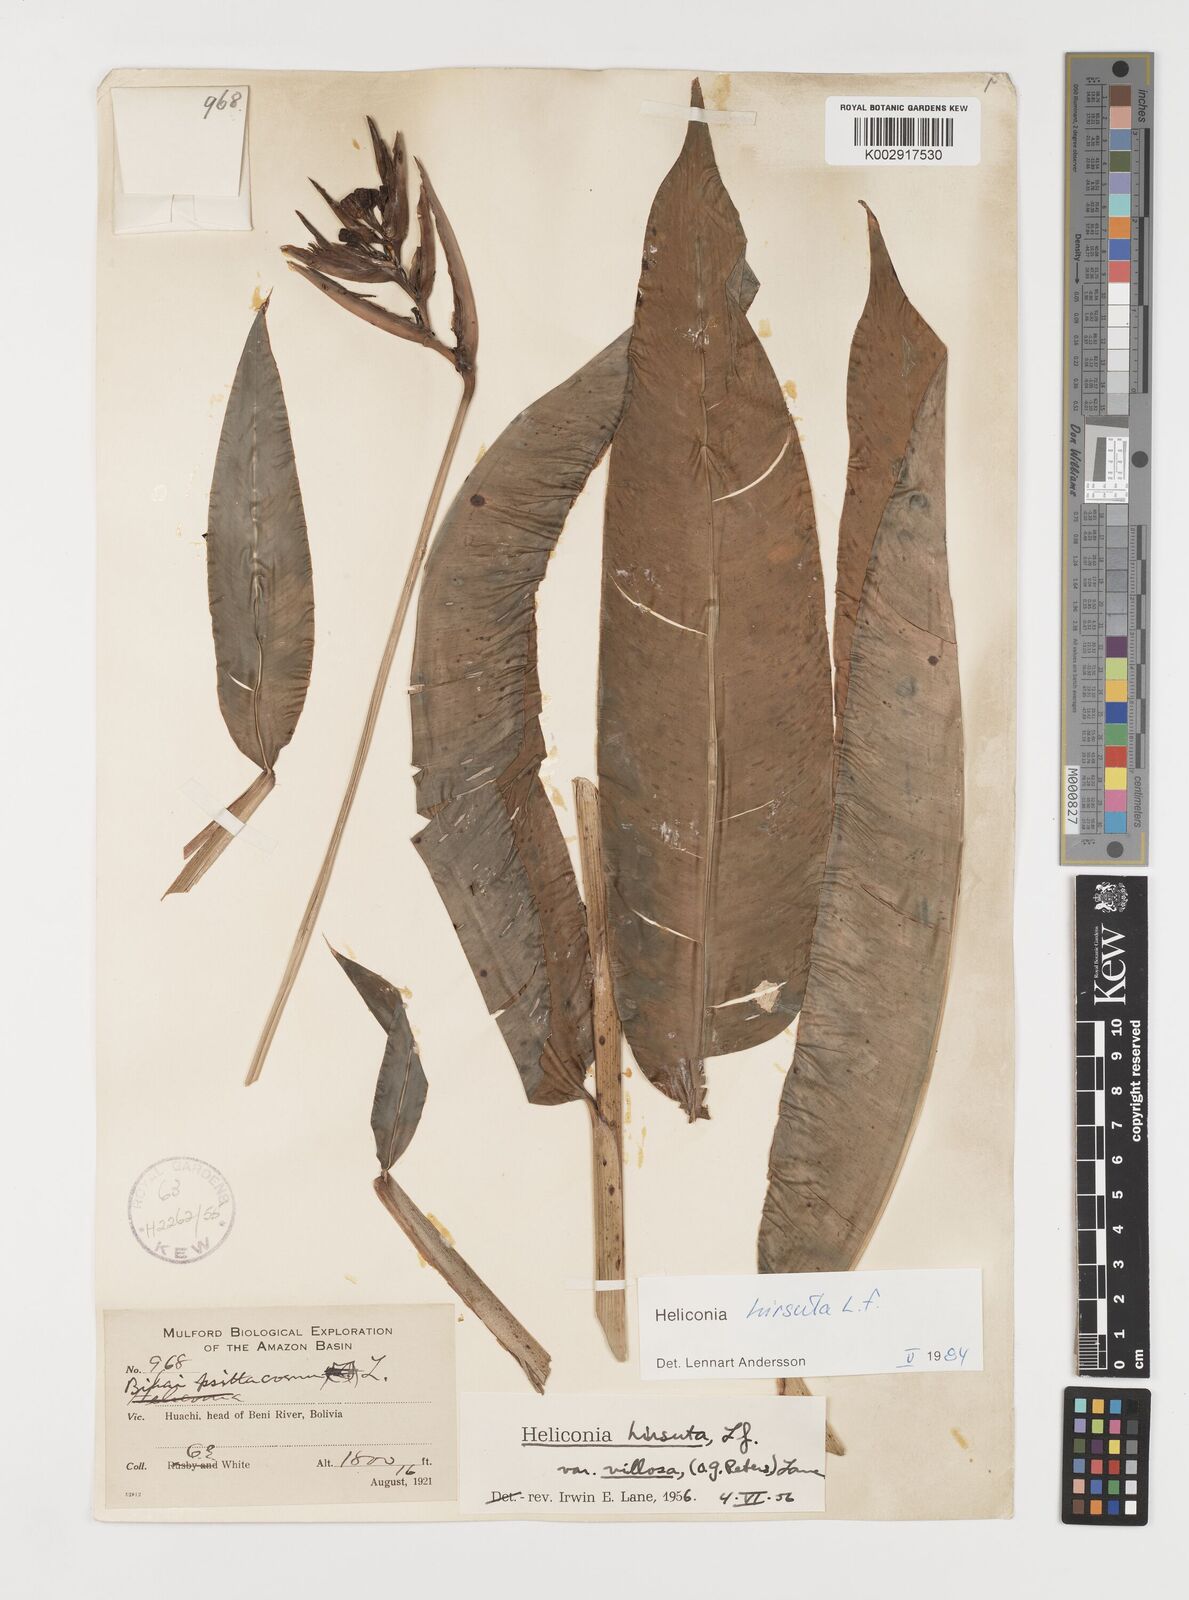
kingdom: Plantae
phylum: Tracheophyta
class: Liliopsida
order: Zingiberales
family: Heliconiaceae
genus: Heliconia
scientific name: Heliconia hirsuta
